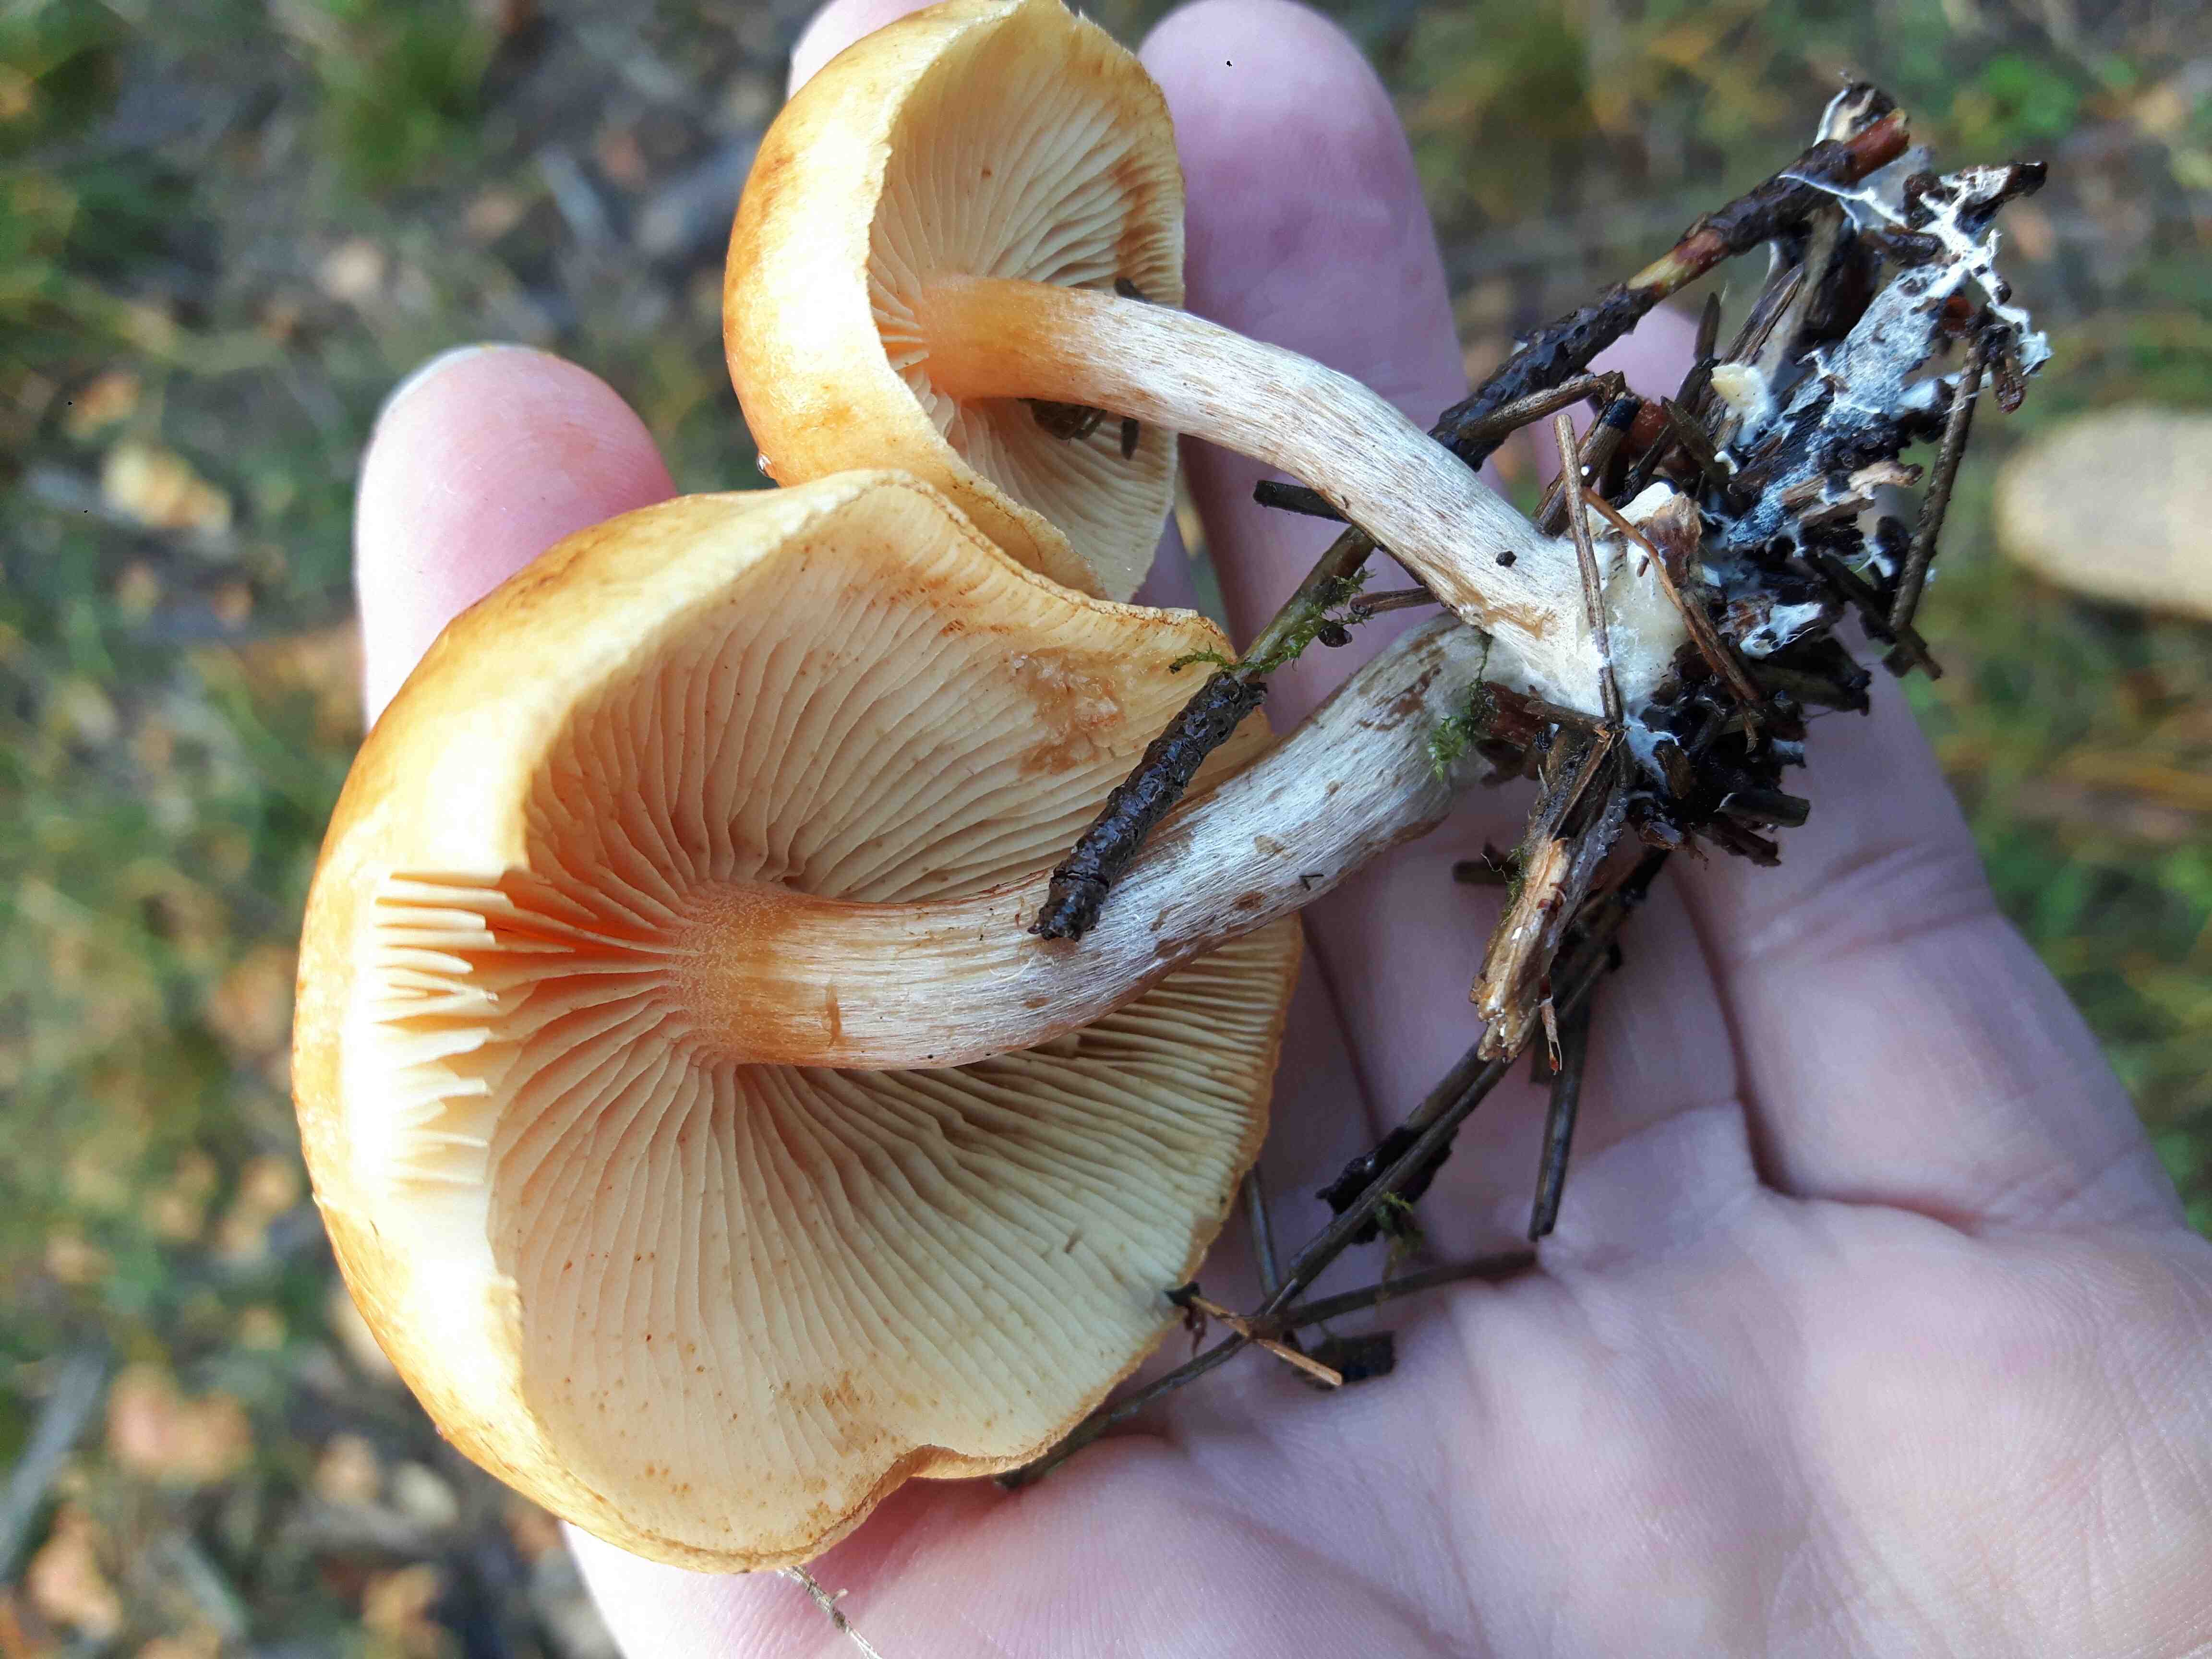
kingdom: Fungi
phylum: Basidiomycota
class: Agaricomycetes
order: Agaricales
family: Hymenogastraceae
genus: Gymnopilus
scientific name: Gymnopilus penetrans
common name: plettet flammehat
